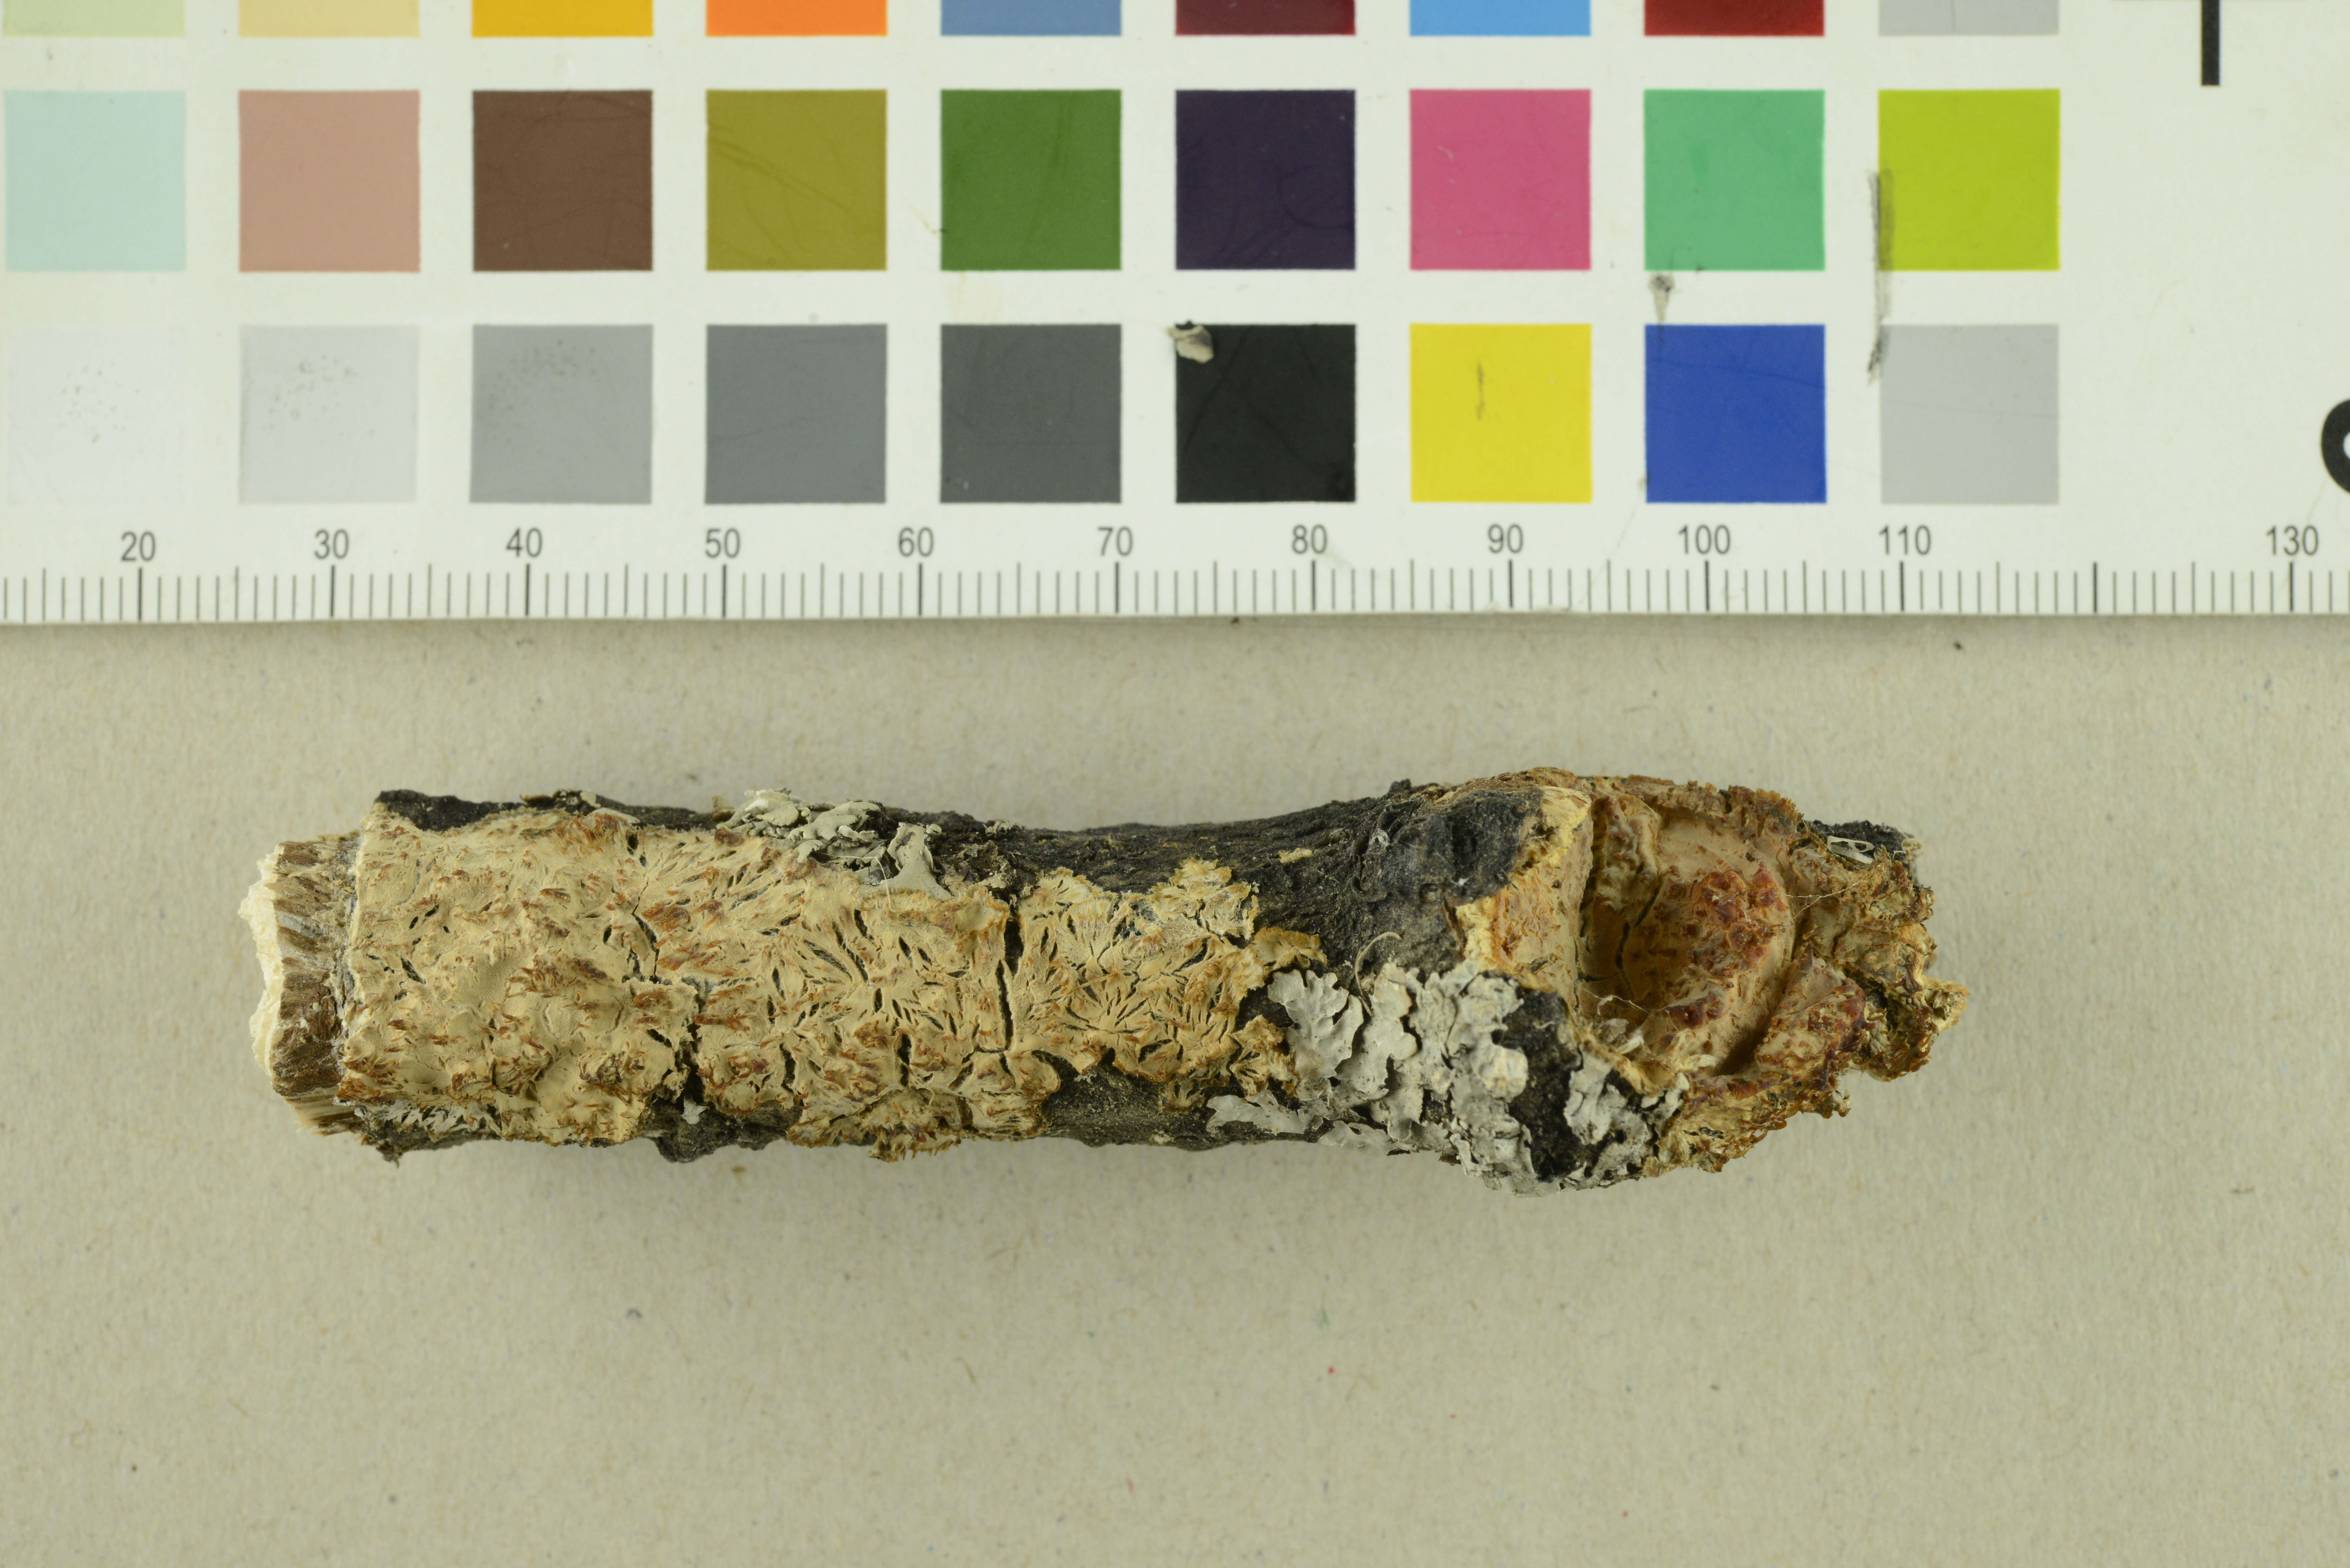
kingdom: Fungi
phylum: Basidiomycota
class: Agaricomycetes
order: Agaricales
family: Radulomycetaceae
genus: Radulomyces
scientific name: Radulomyces molaris
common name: Oak toothcrust
